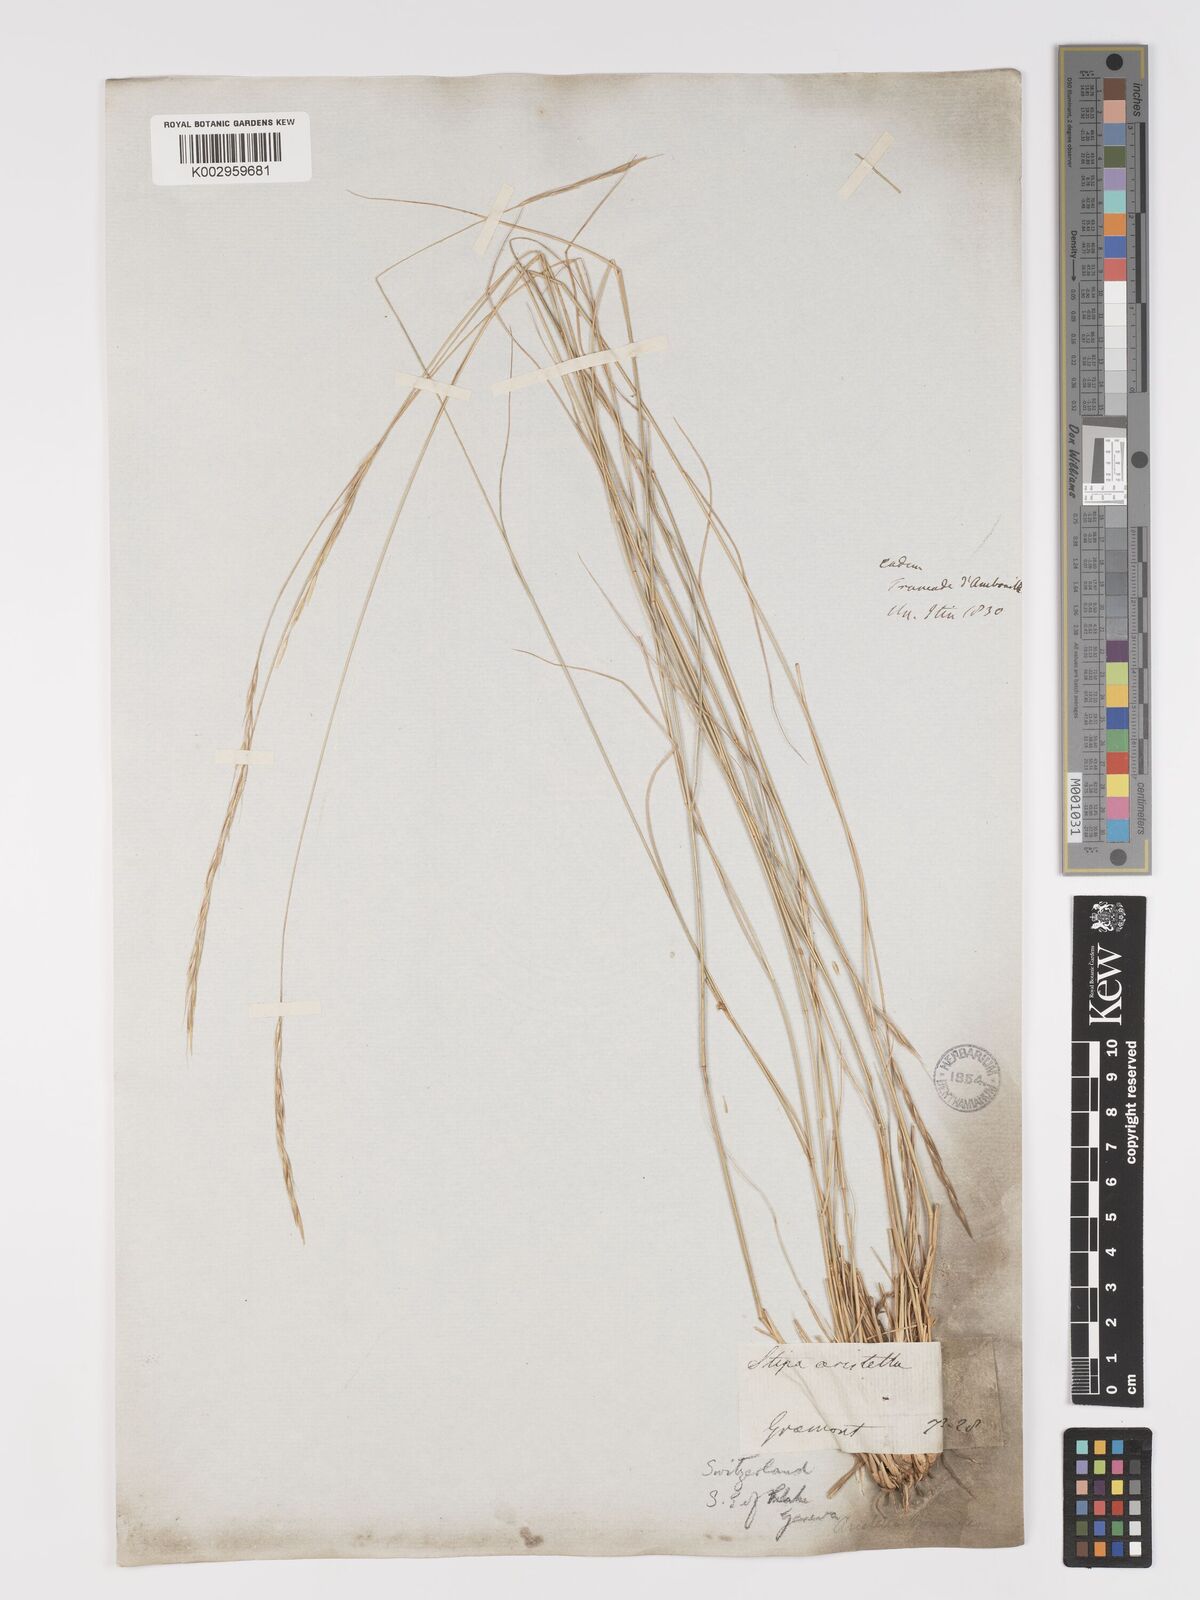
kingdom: Plantae
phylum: Tracheophyta
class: Liliopsida
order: Poales
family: Poaceae
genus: Achnatherum
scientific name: Achnatherum bromoides
